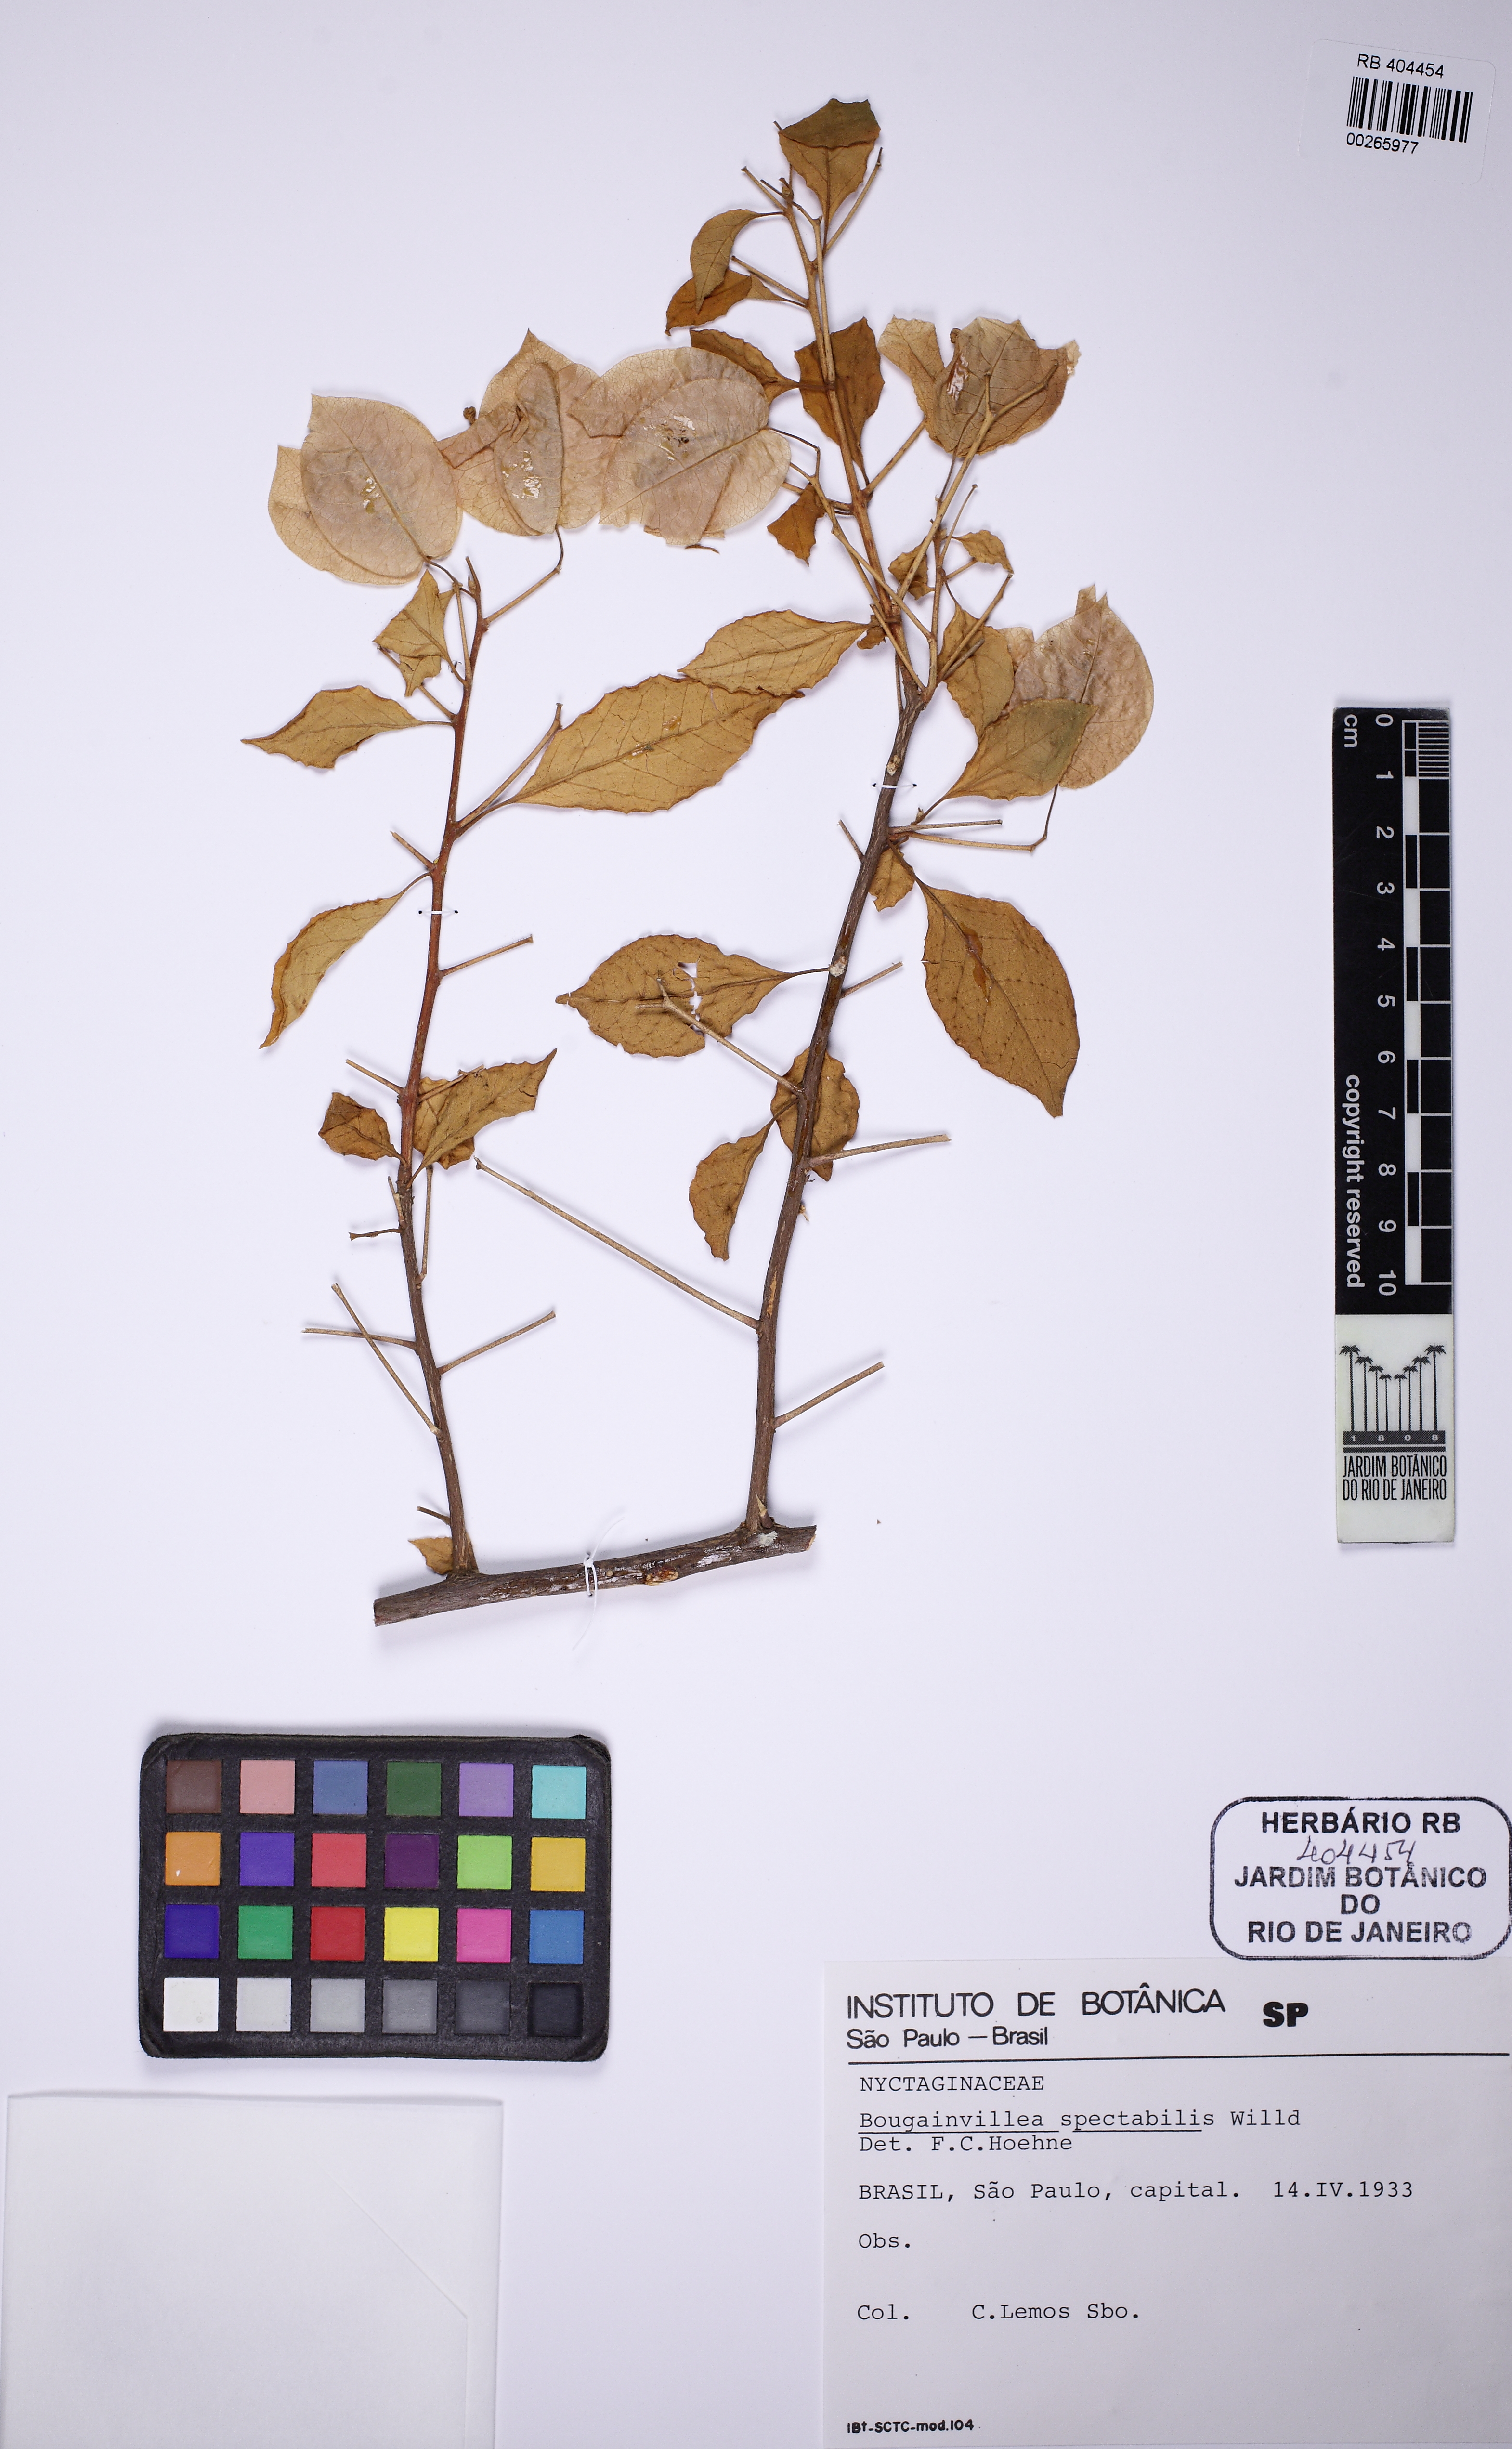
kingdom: Plantae
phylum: Tracheophyta
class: Magnoliopsida
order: Caryophyllales
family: Nyctaginaceae
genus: Bougainvillea
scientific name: Bougainvillea spectabilis
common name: Great bougainvillea
